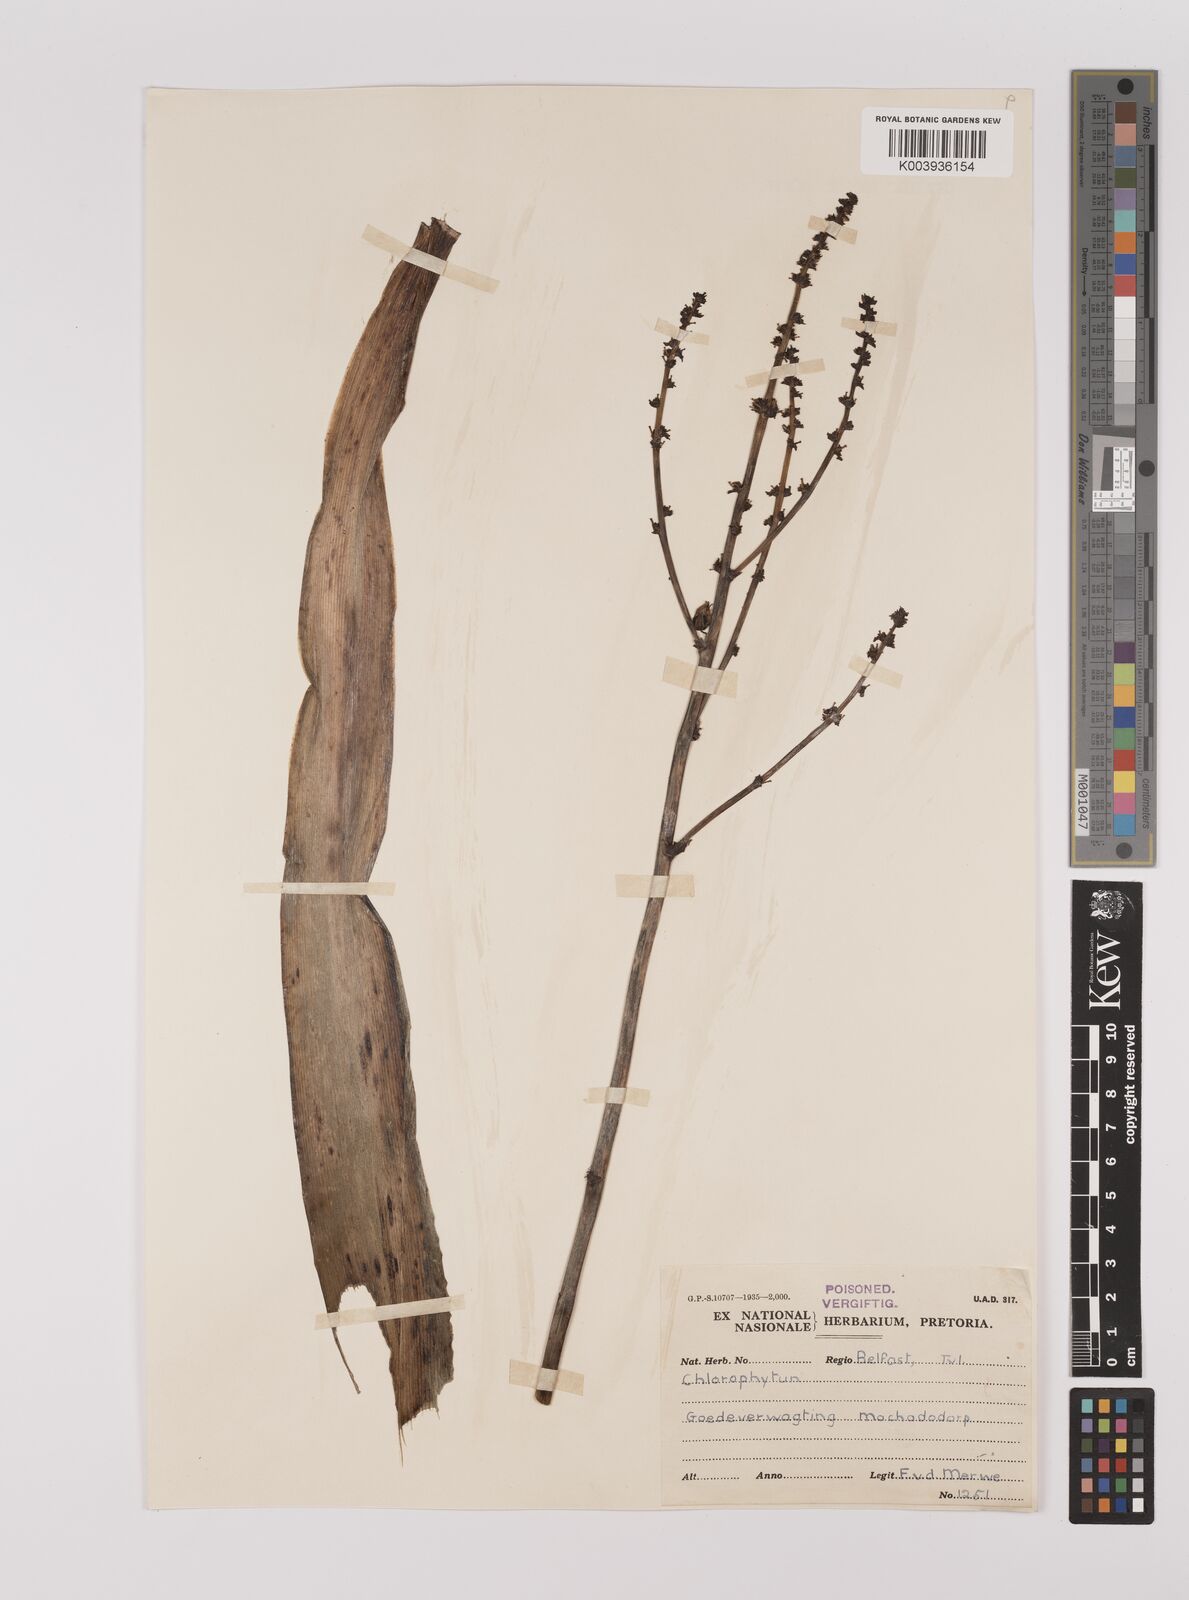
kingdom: Plantae
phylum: Tracheophyta
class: Liliopsida
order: Asparagales
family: Asparagaceae
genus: Chlorophytum
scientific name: Chlorophytum
